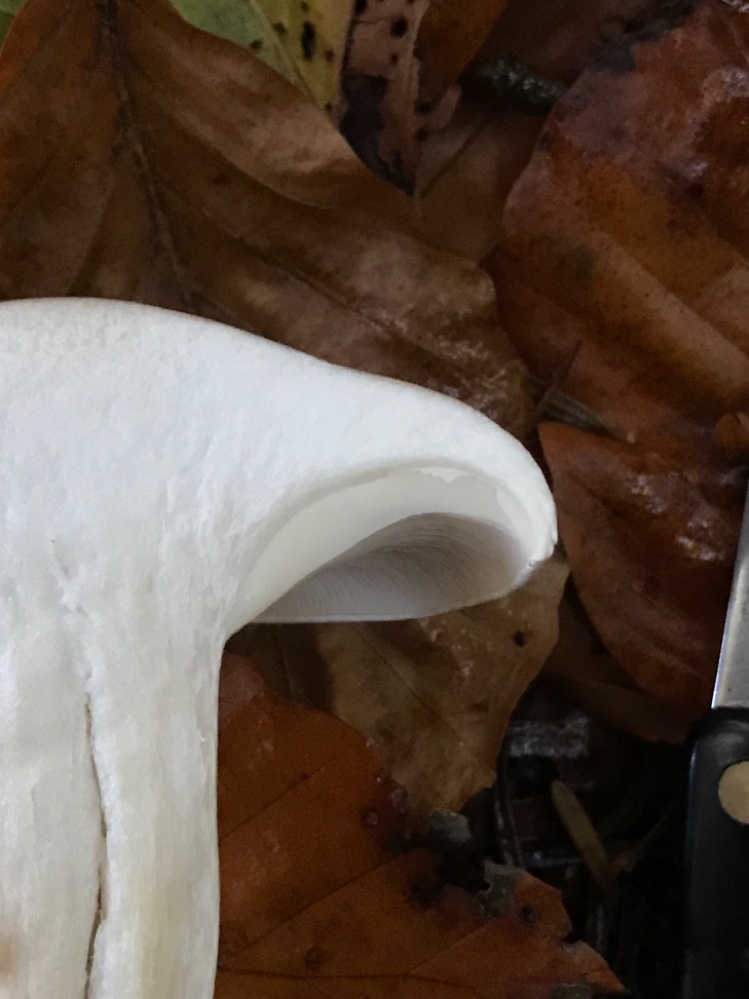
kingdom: Fungi
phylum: Basidiomycota
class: Agaricomycetes
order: Agaricales
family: Tricholomataceae
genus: Clitocybe
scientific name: Clitocybe nebularis
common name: tåge-tragthat
